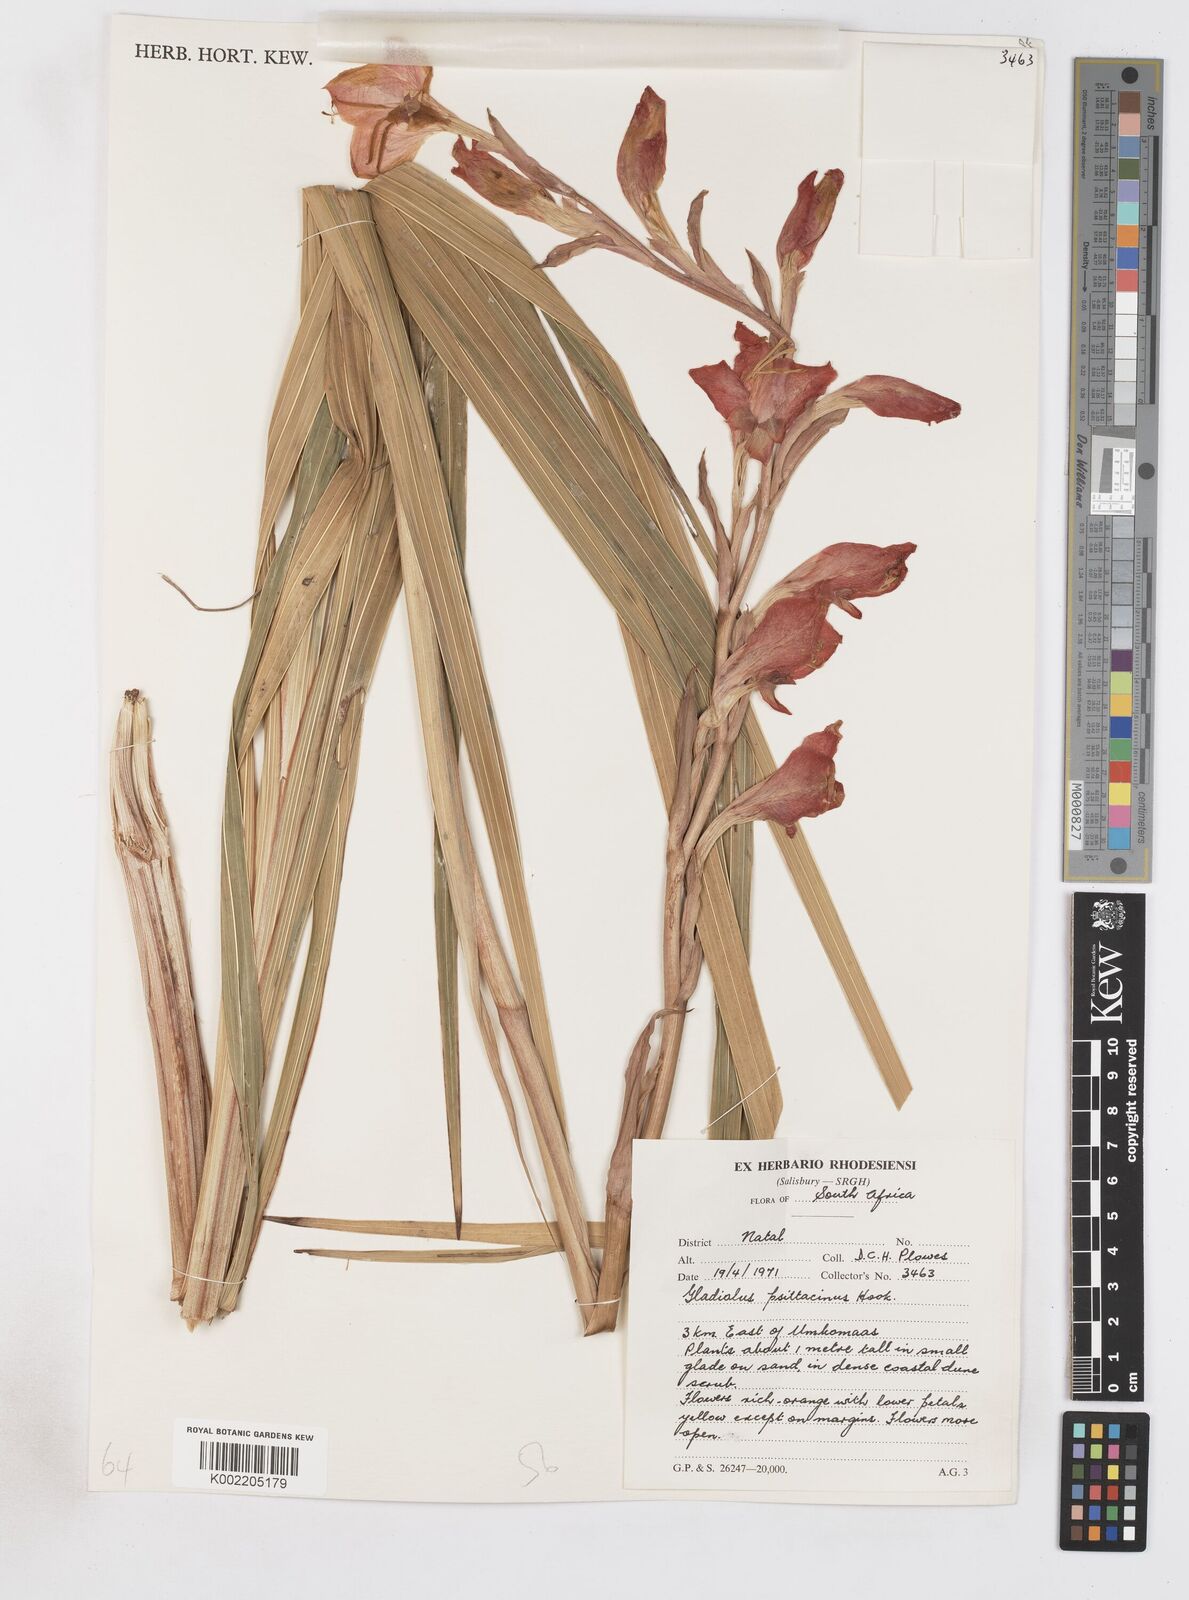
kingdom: Plantae
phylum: Tracheophyta
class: Liliopsida
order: Asparagales
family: Iridaceae
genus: Gladiolus
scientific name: Gladiolus dalenii
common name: Cornflag
